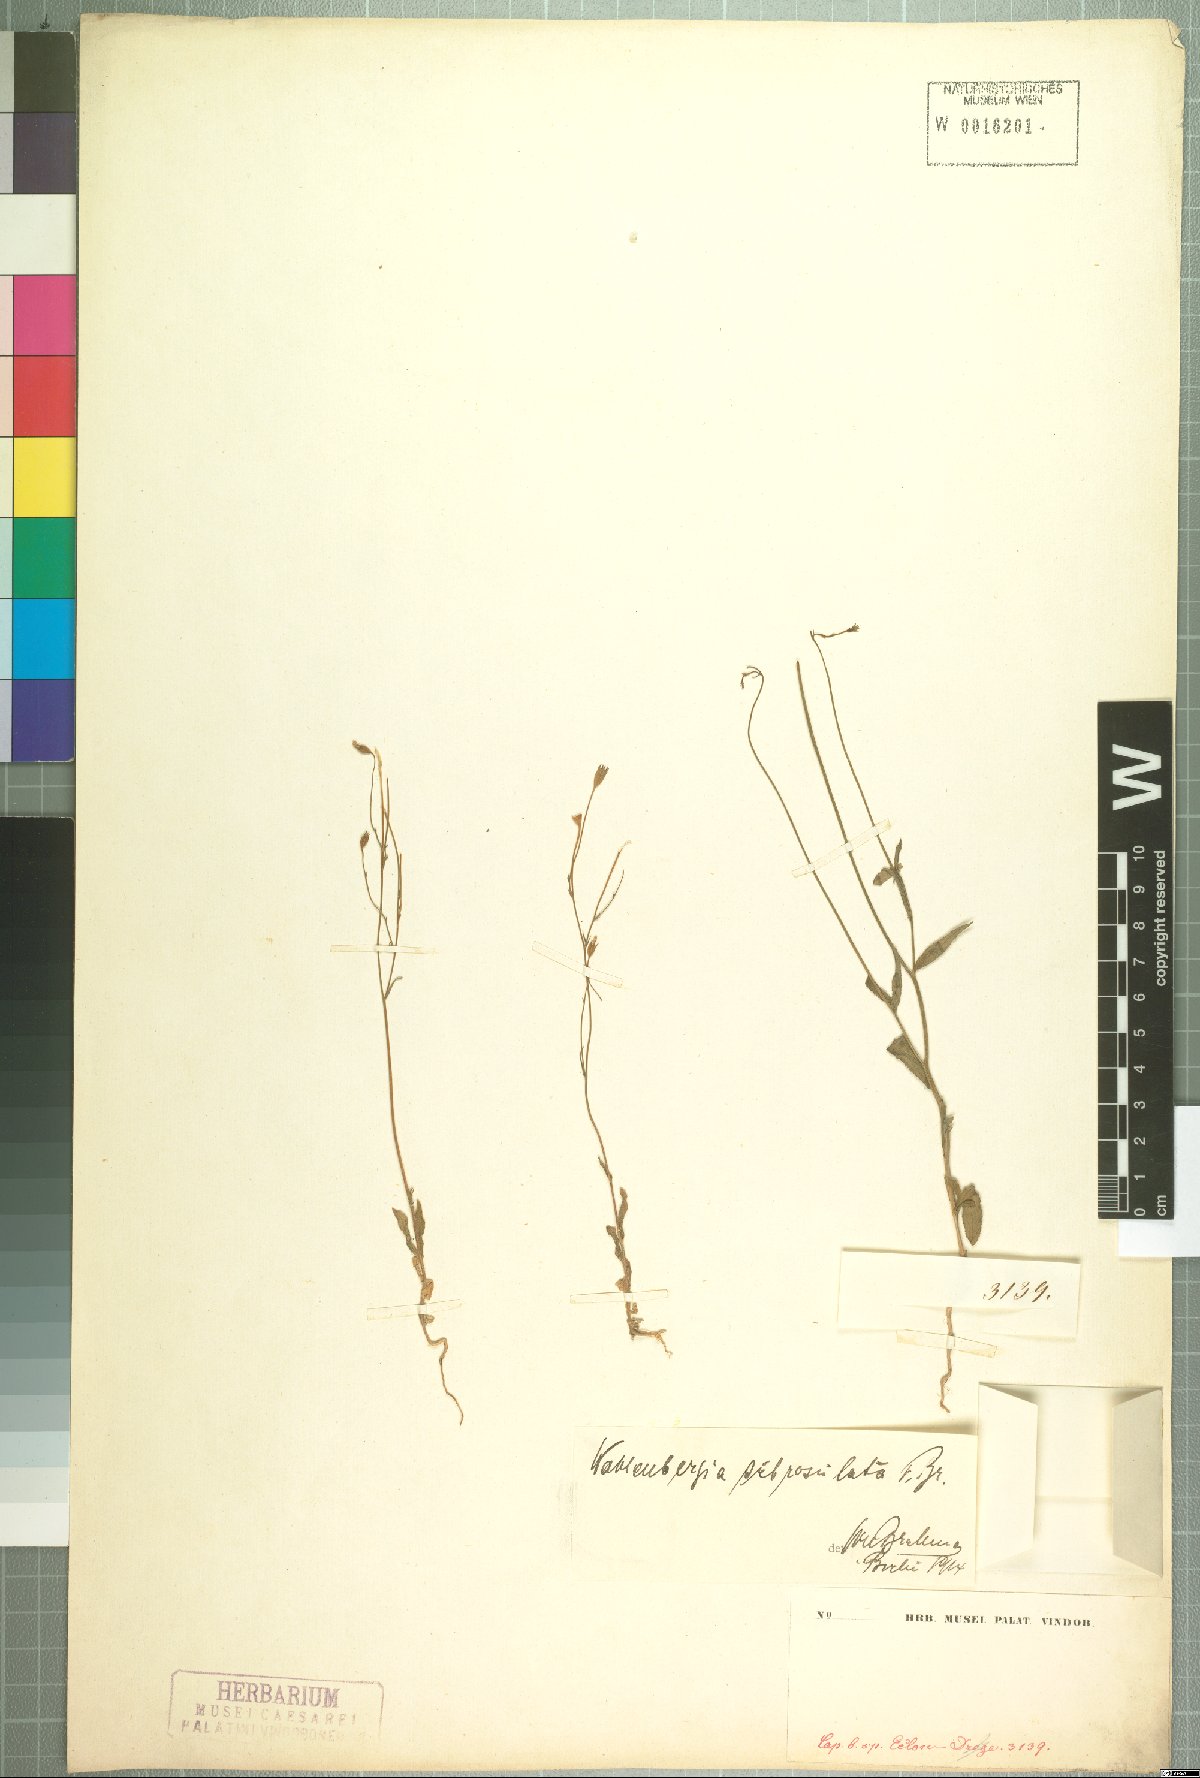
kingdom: Plantae
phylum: Tracheophyta
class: Magnoliopsida
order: Asterales
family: Campanulaceae
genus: Wahlenbergia
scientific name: Wahlenbergia subrosulata
